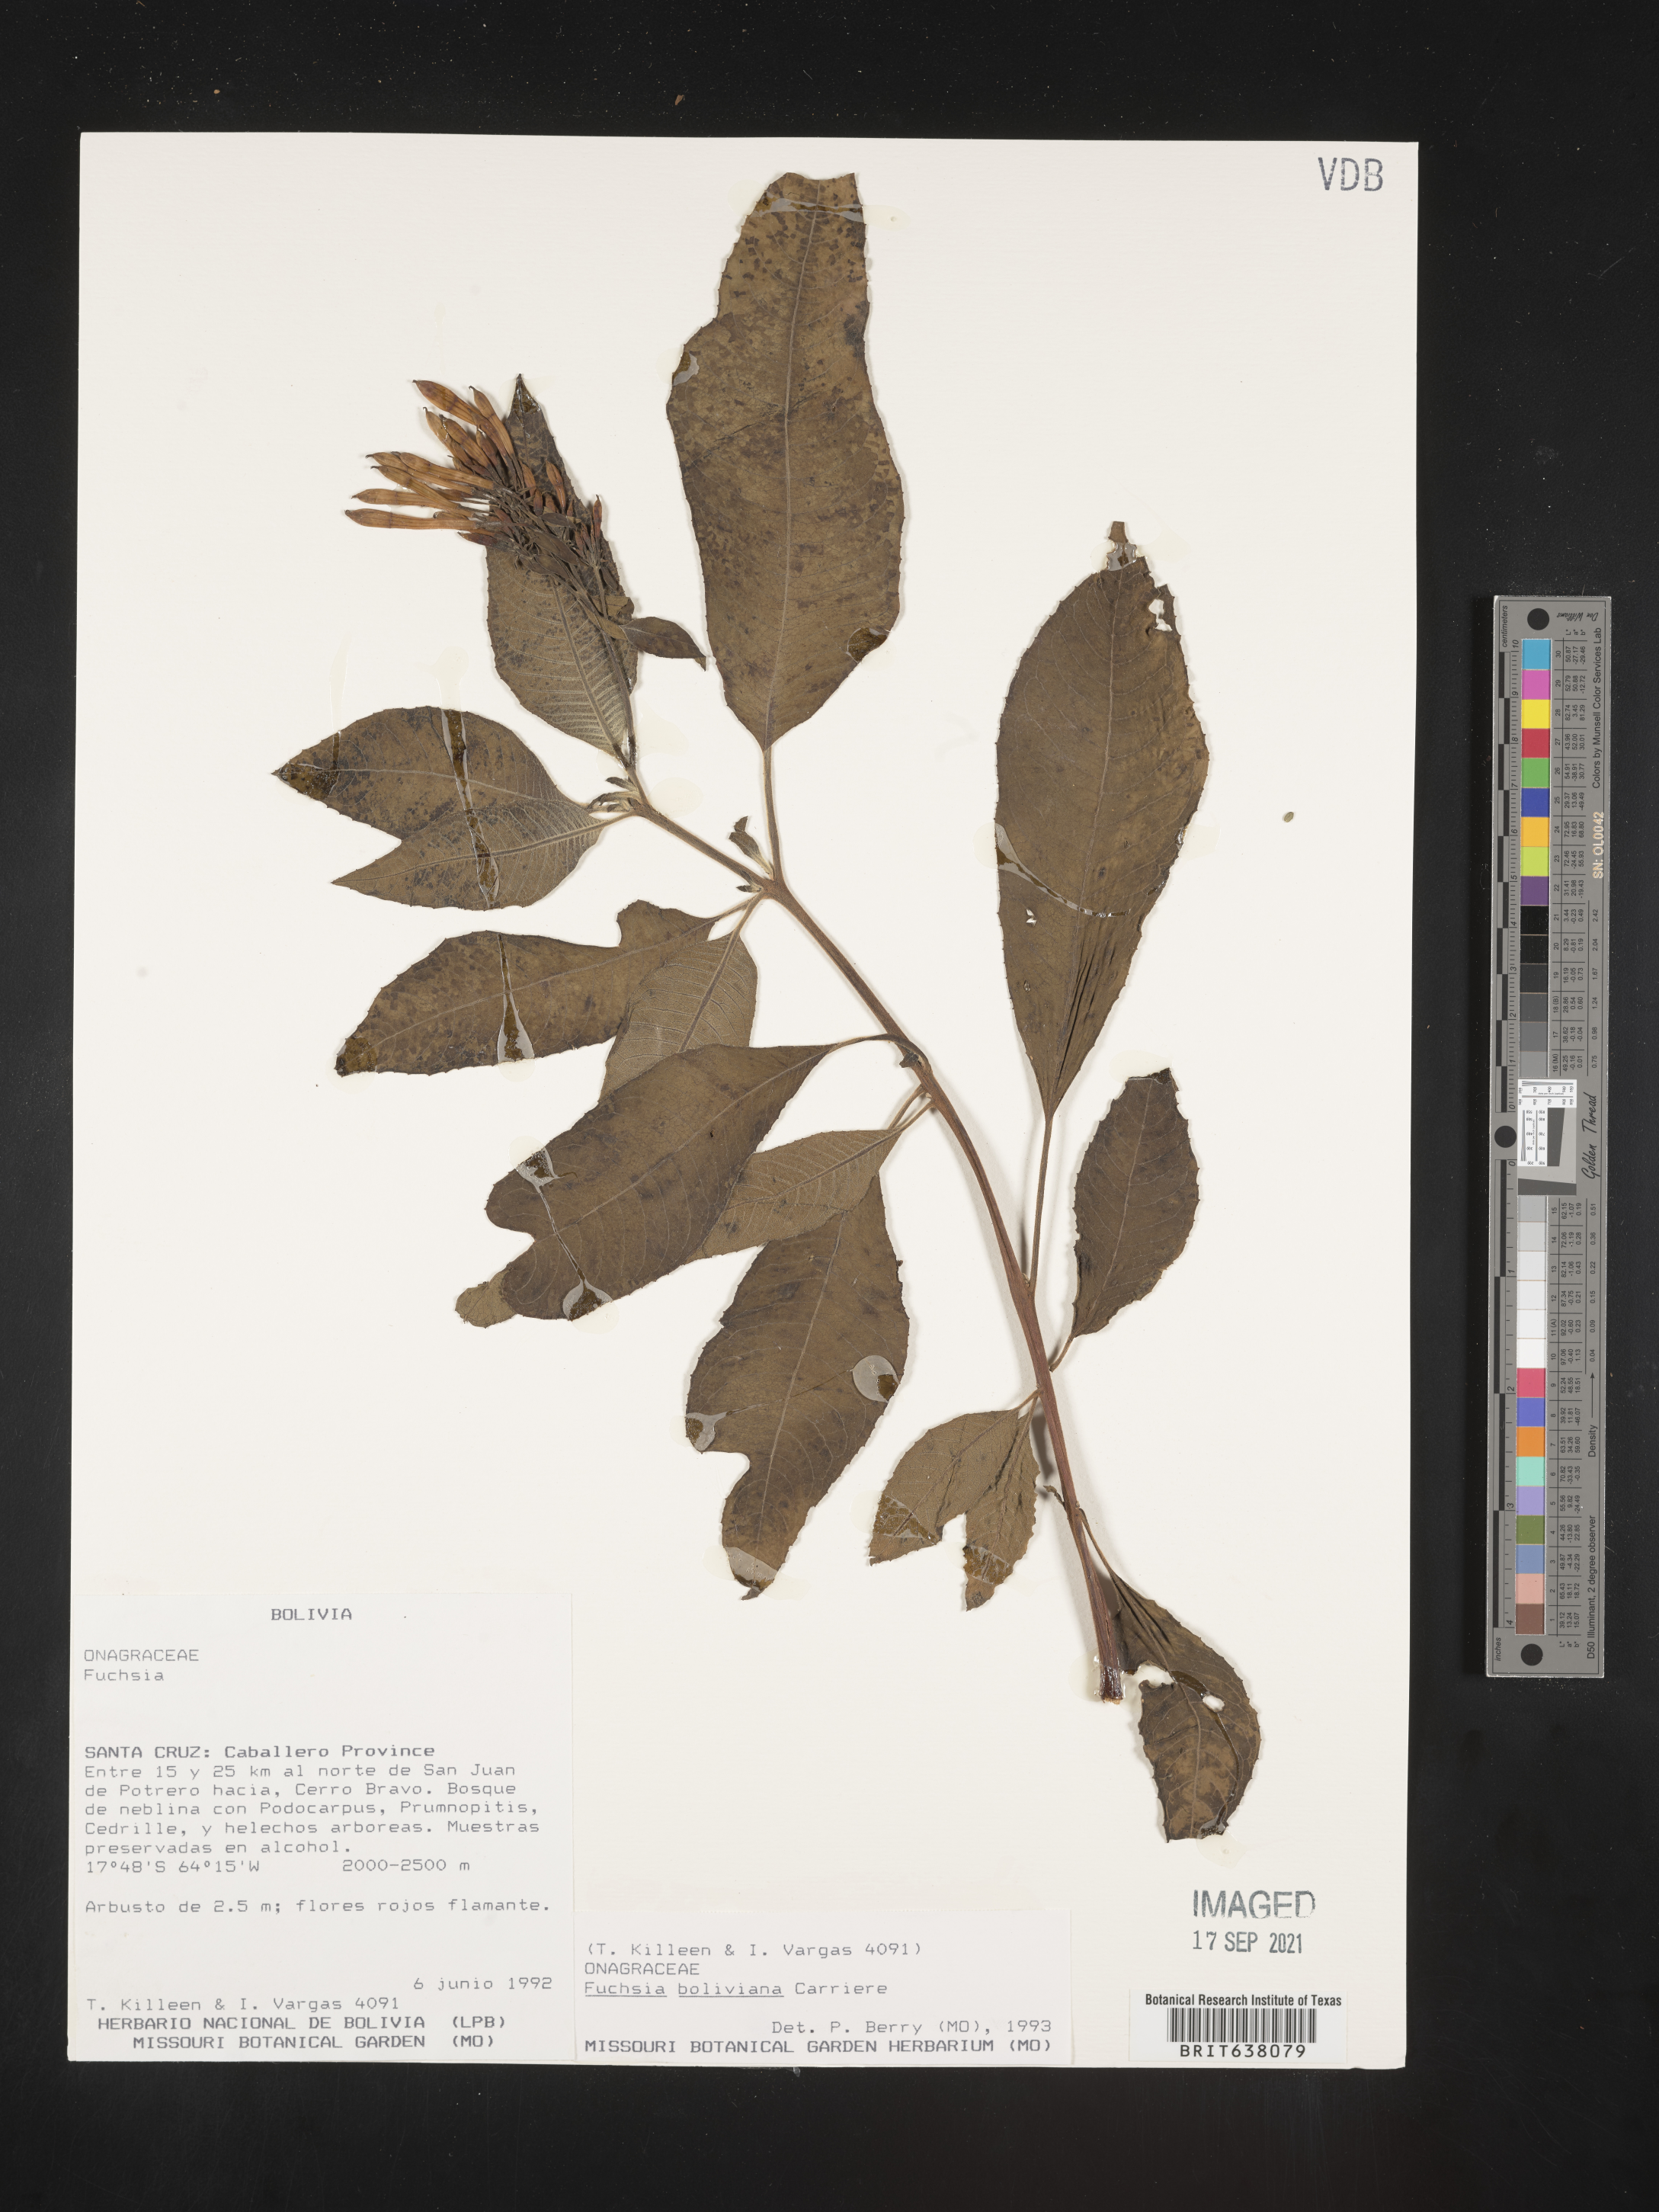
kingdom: Plantae
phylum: Tracheophyta
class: Magnoliopsida
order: Myrtales
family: Onagraceae
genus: Fuchsia
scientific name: Fuchsia
